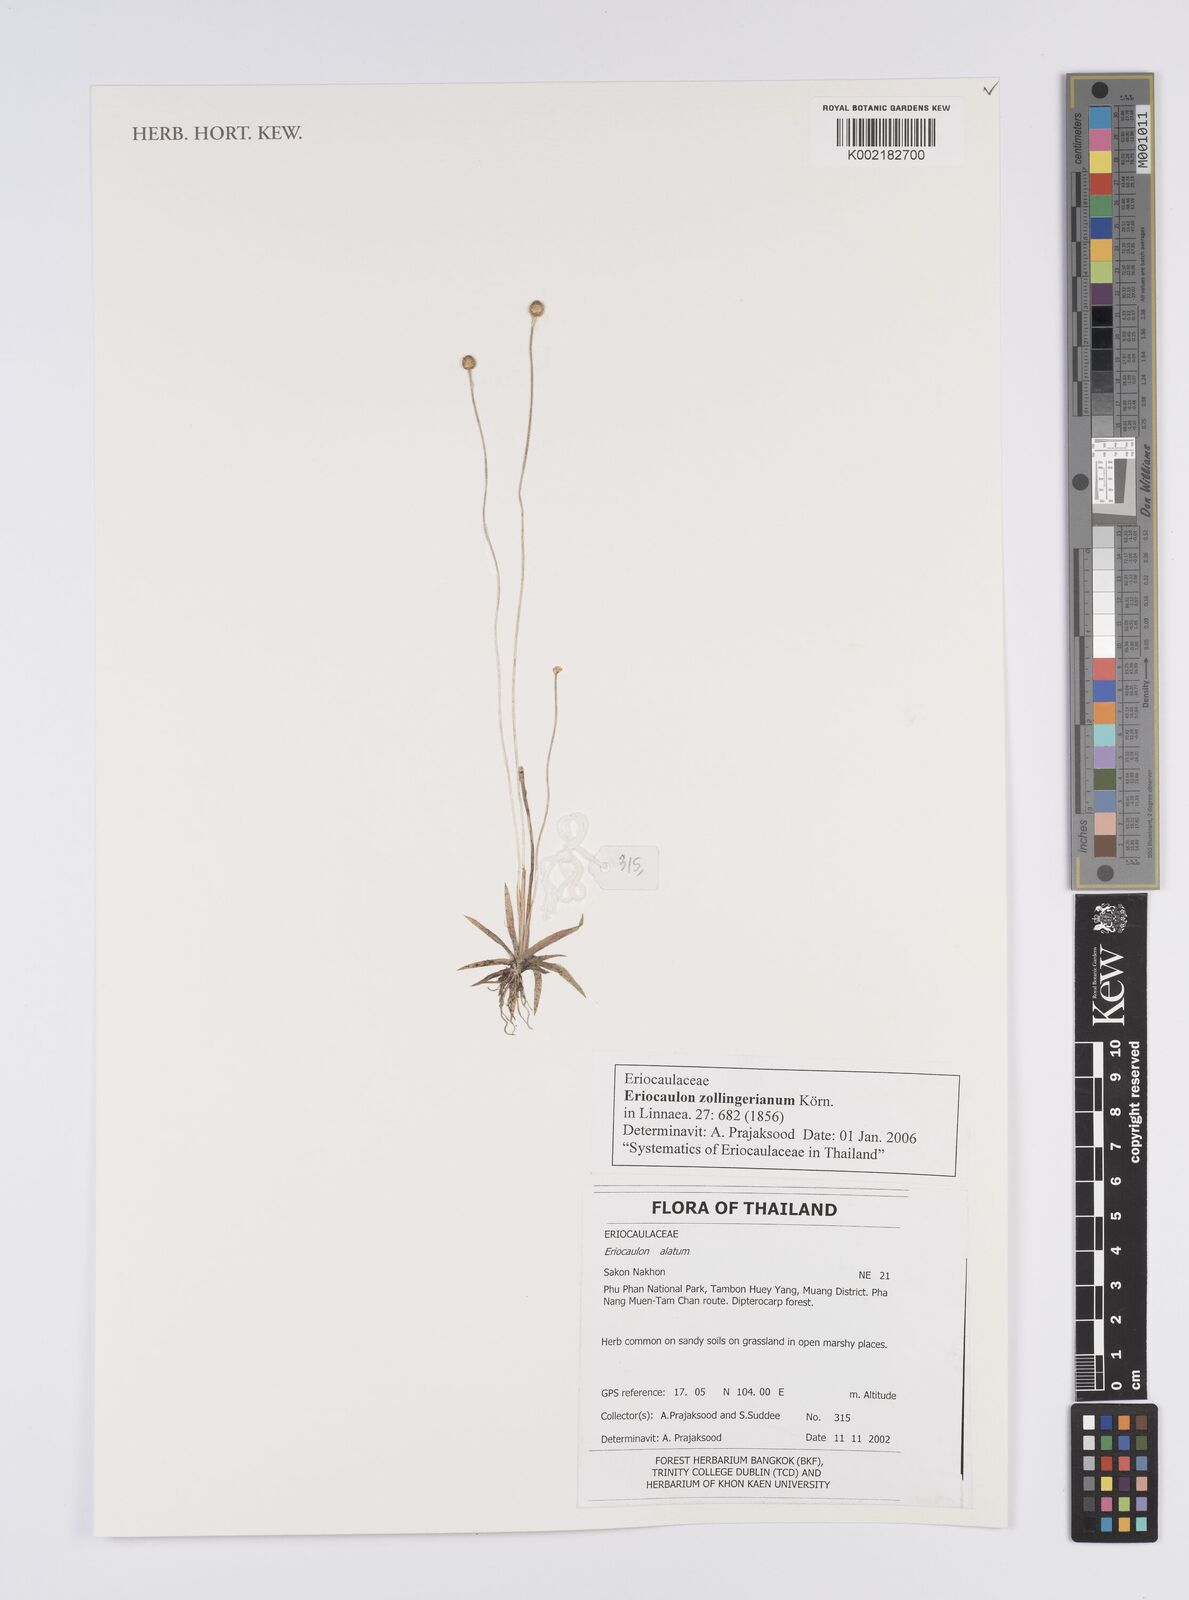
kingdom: Plantae
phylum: Tracheophyta
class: Liliopsida
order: Poales
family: Eriocaulaceae
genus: Eriocaulon
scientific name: Eriocaulon zollingerianum
